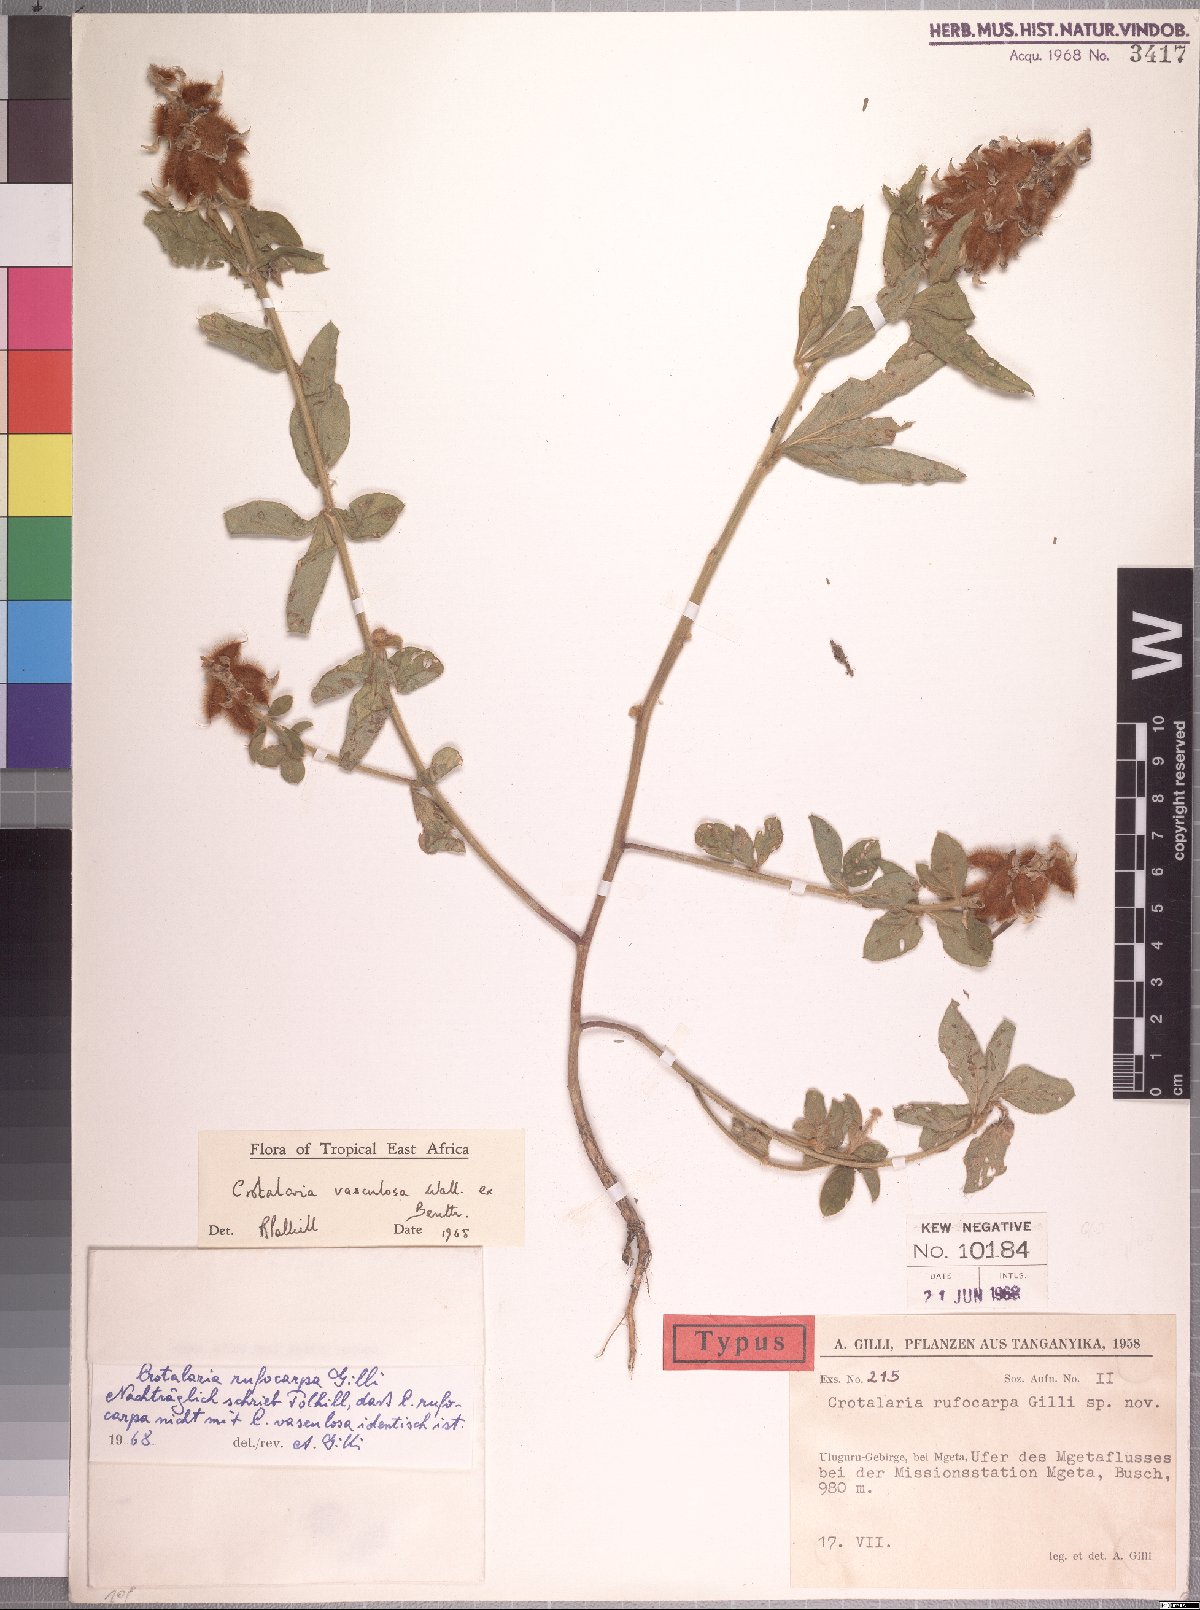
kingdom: Plantae
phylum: Tracheophyta
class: Magnoliopsida
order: Fabales
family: Fabaceae
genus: Crotalaria
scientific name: Crotalaria vasculosa
